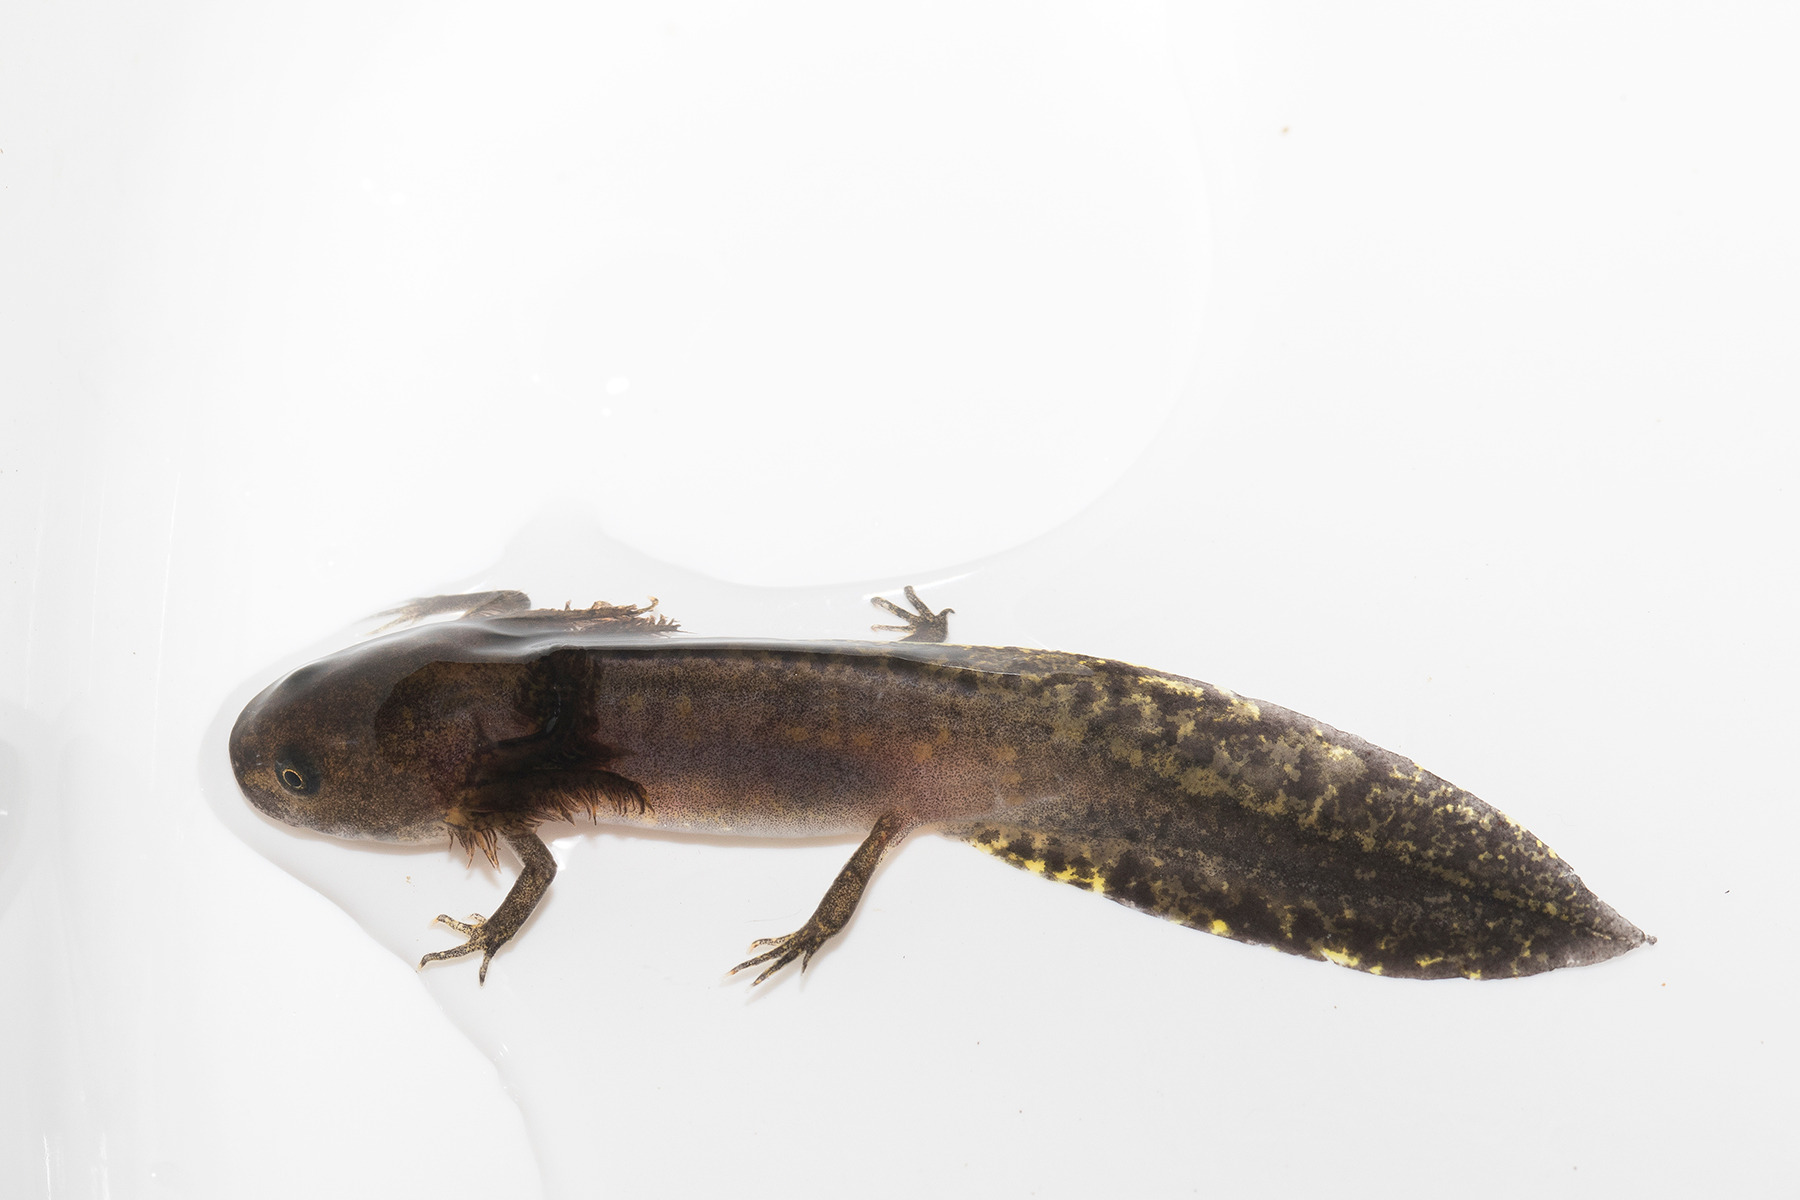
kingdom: Animalia
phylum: Chordata
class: Amphibia
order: Caudata
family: Salamandridae
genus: Ichthyosaura
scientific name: Ichthyosaura alpestris
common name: Bjergsalamander
